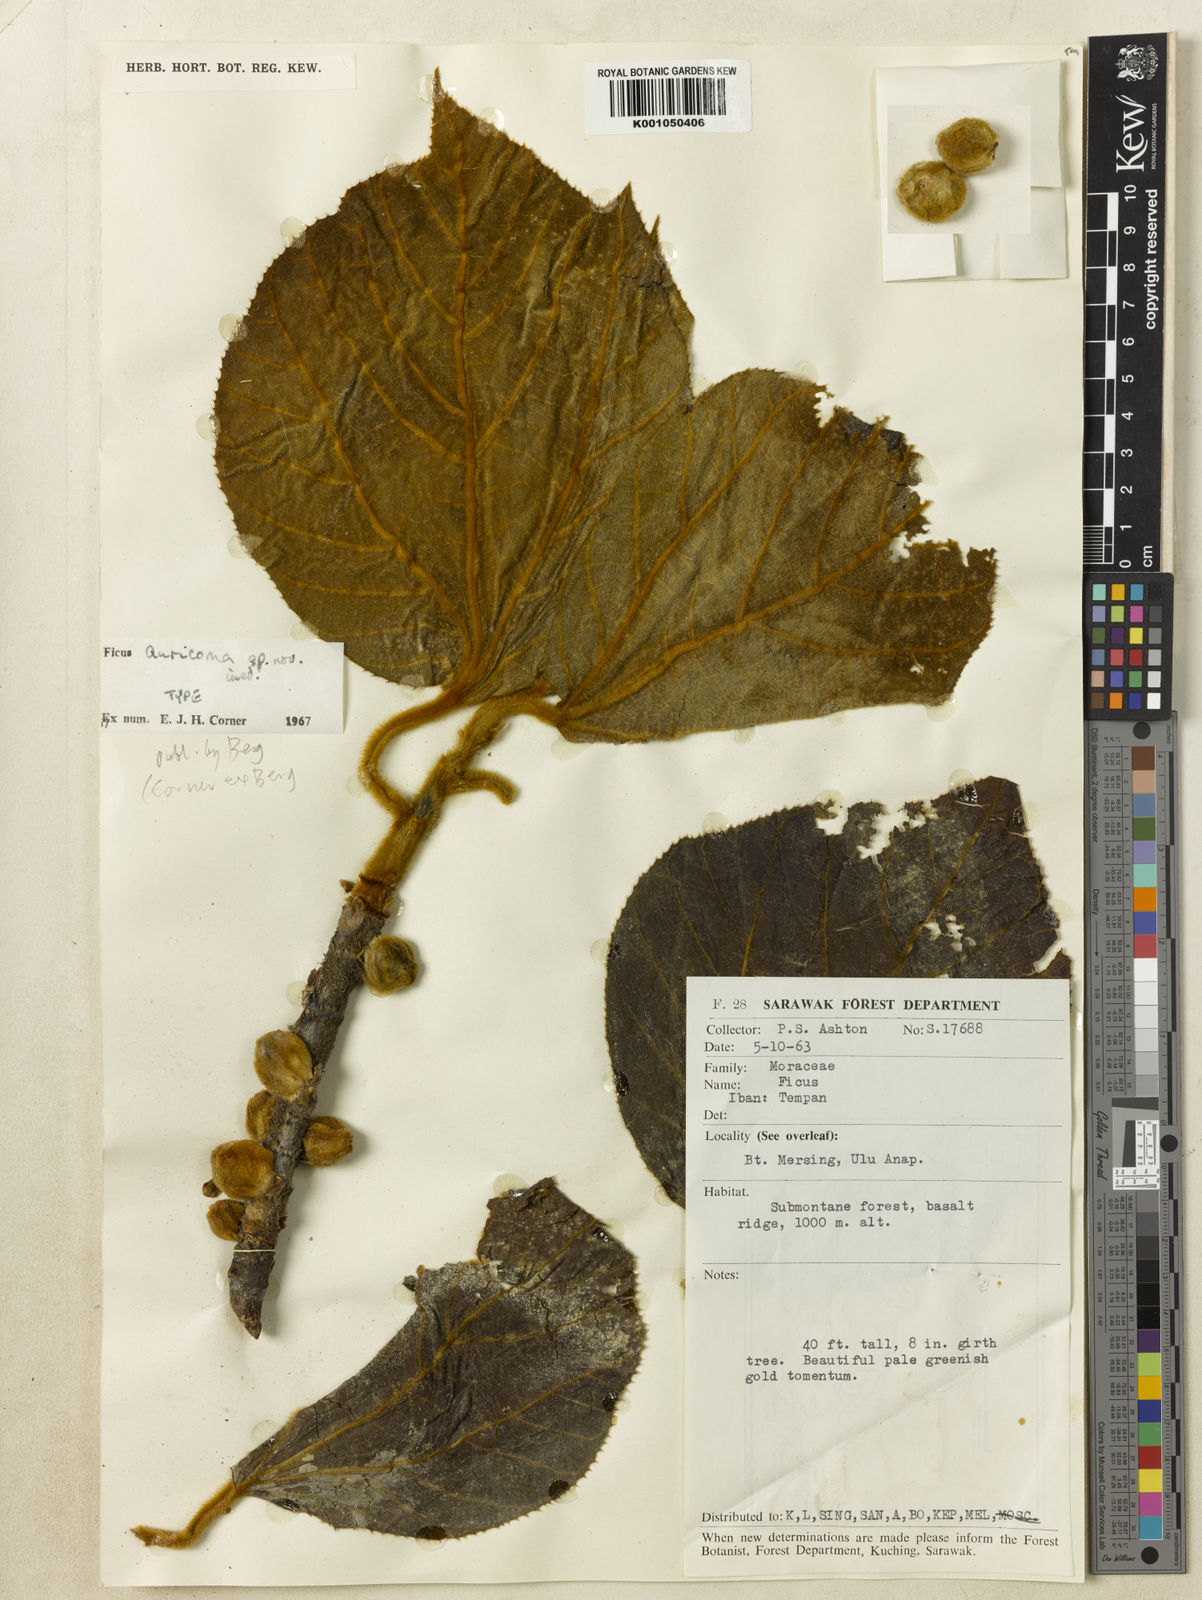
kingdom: Plantae
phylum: Tracheophyta
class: Magnoliopsida
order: Rosales
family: Moraceae
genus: Ficus
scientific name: Ficus auricoma
